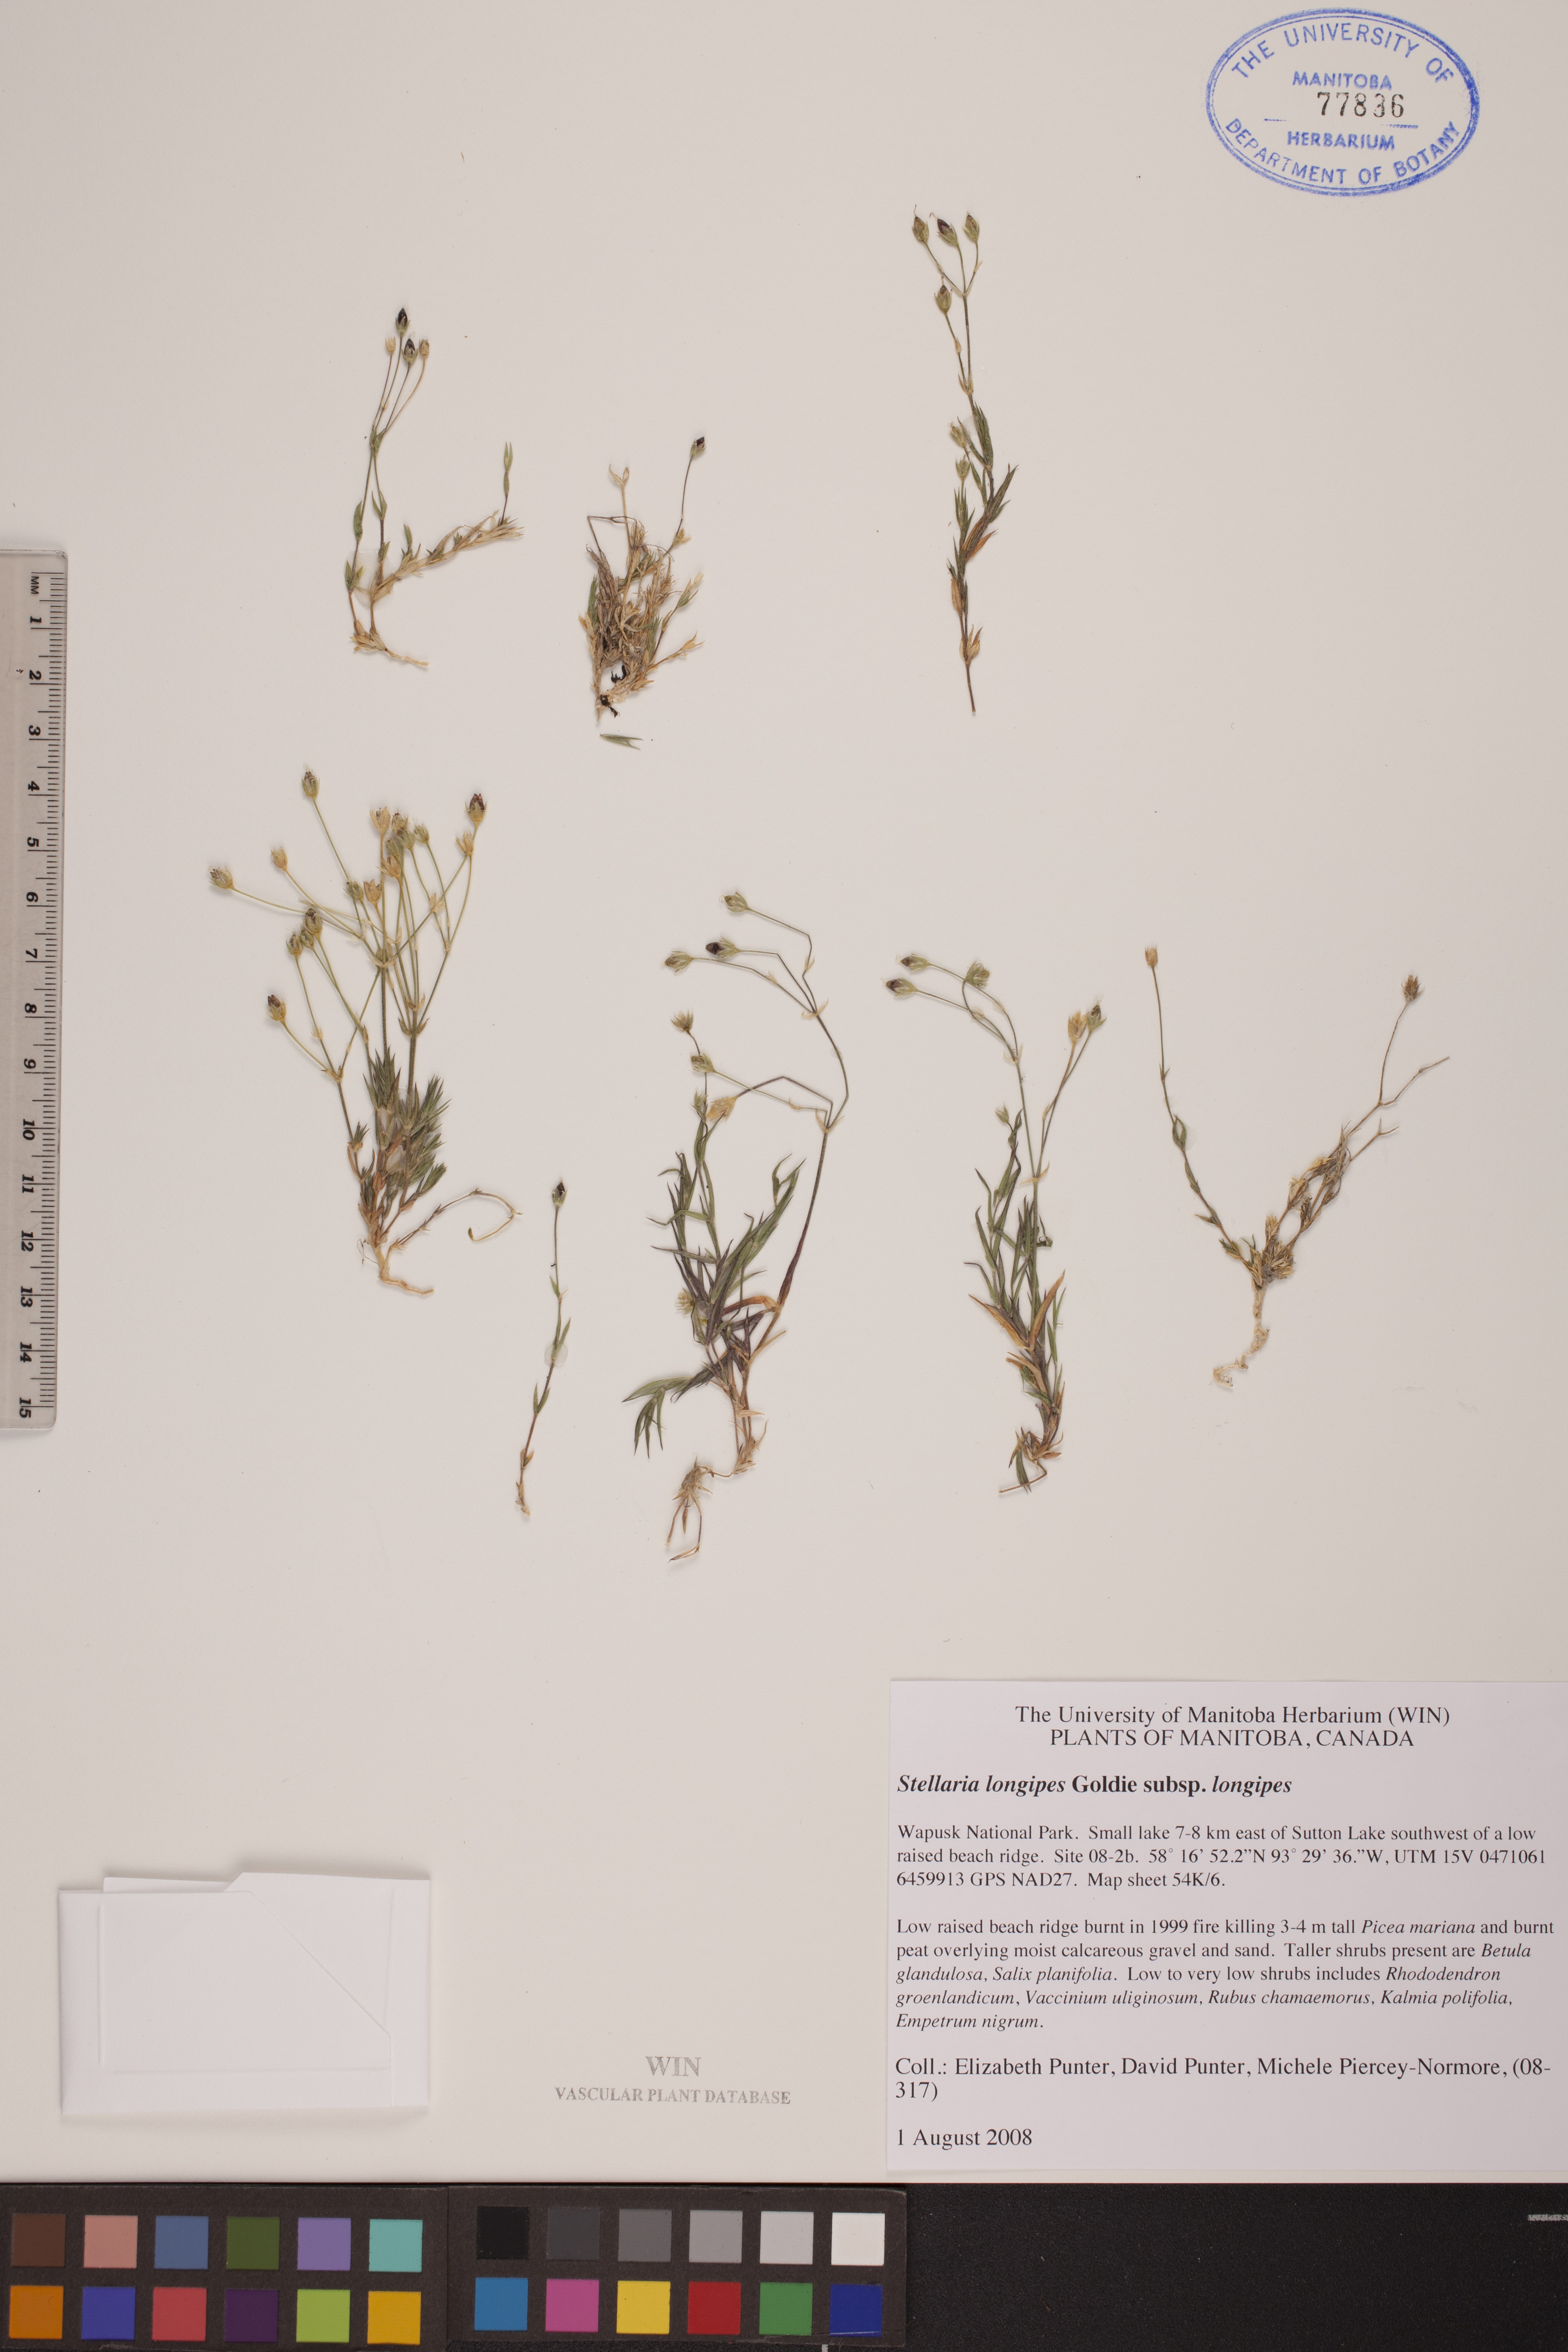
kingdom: Plantae
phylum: Tracheophyta
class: Magnoliopsida
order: Caryophyllales
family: Caryophyllaceae
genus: Stellaria
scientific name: Stellaria longipes
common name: Goldie's starwort
